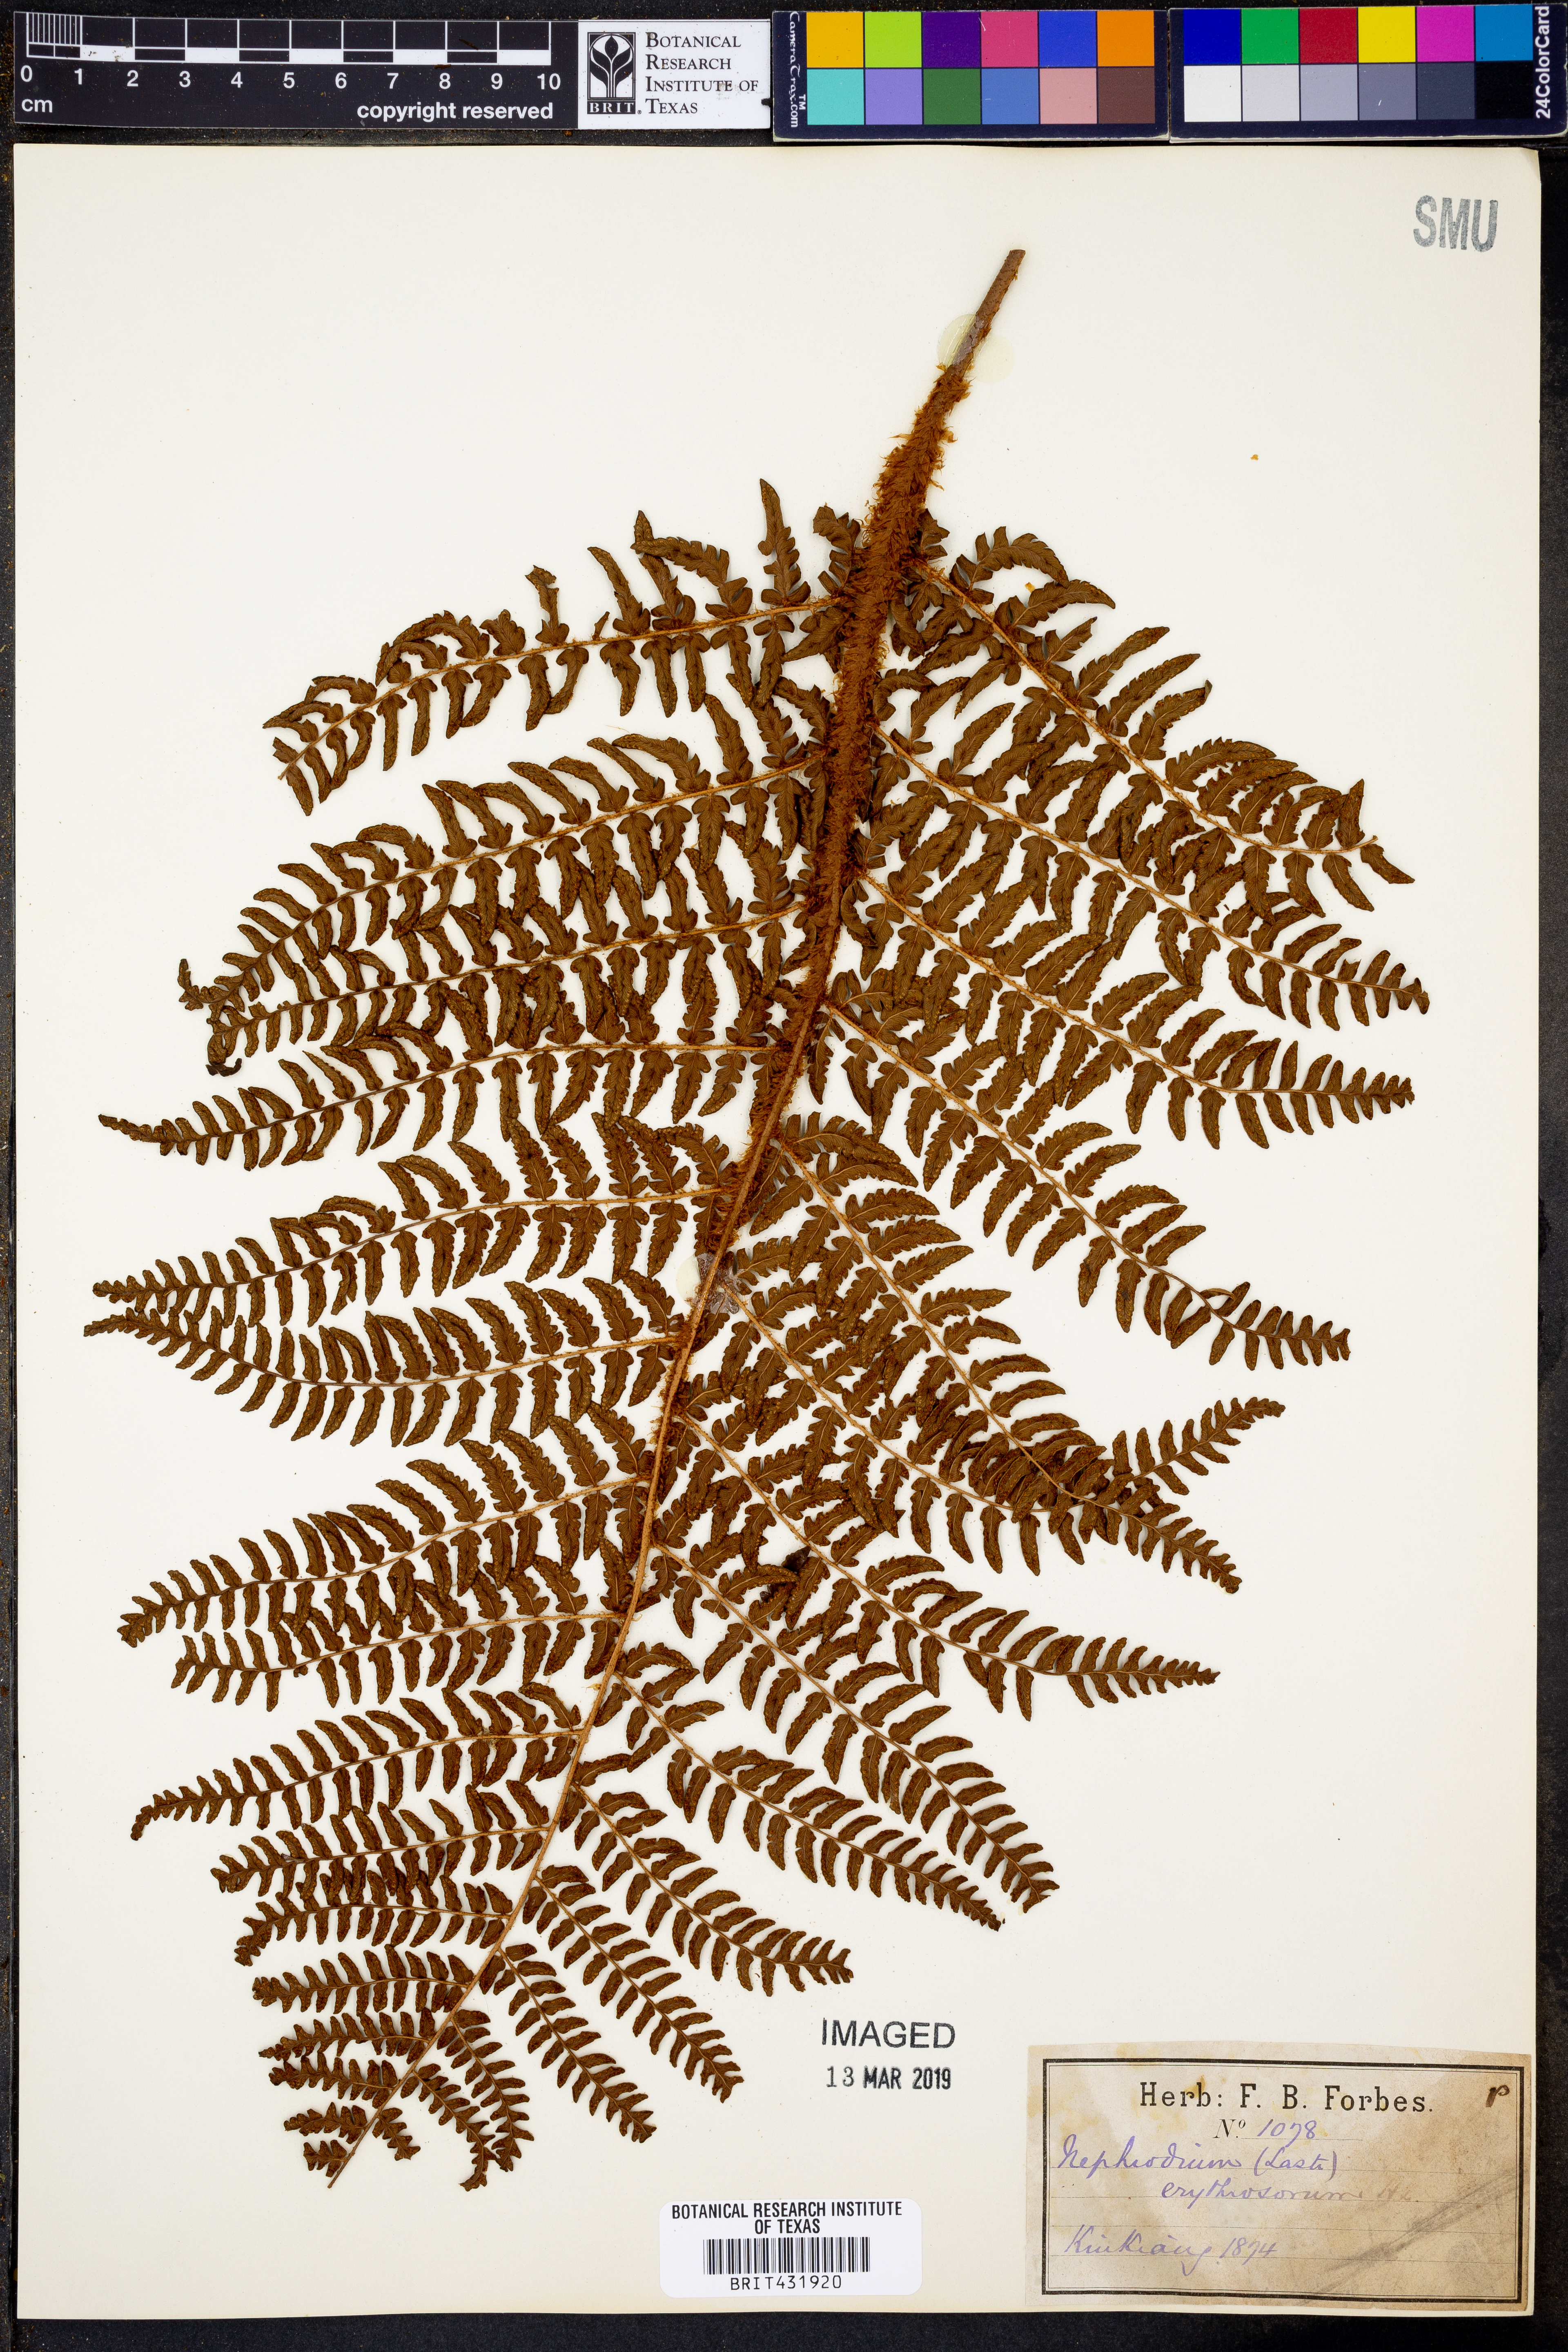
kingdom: Plantae
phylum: Tracheophyta
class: Polypodiopsida
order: Polypodiales
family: Dryopteridaceae
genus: Dryopteris
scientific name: Dryopteris erythrosora
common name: Autumn fern
